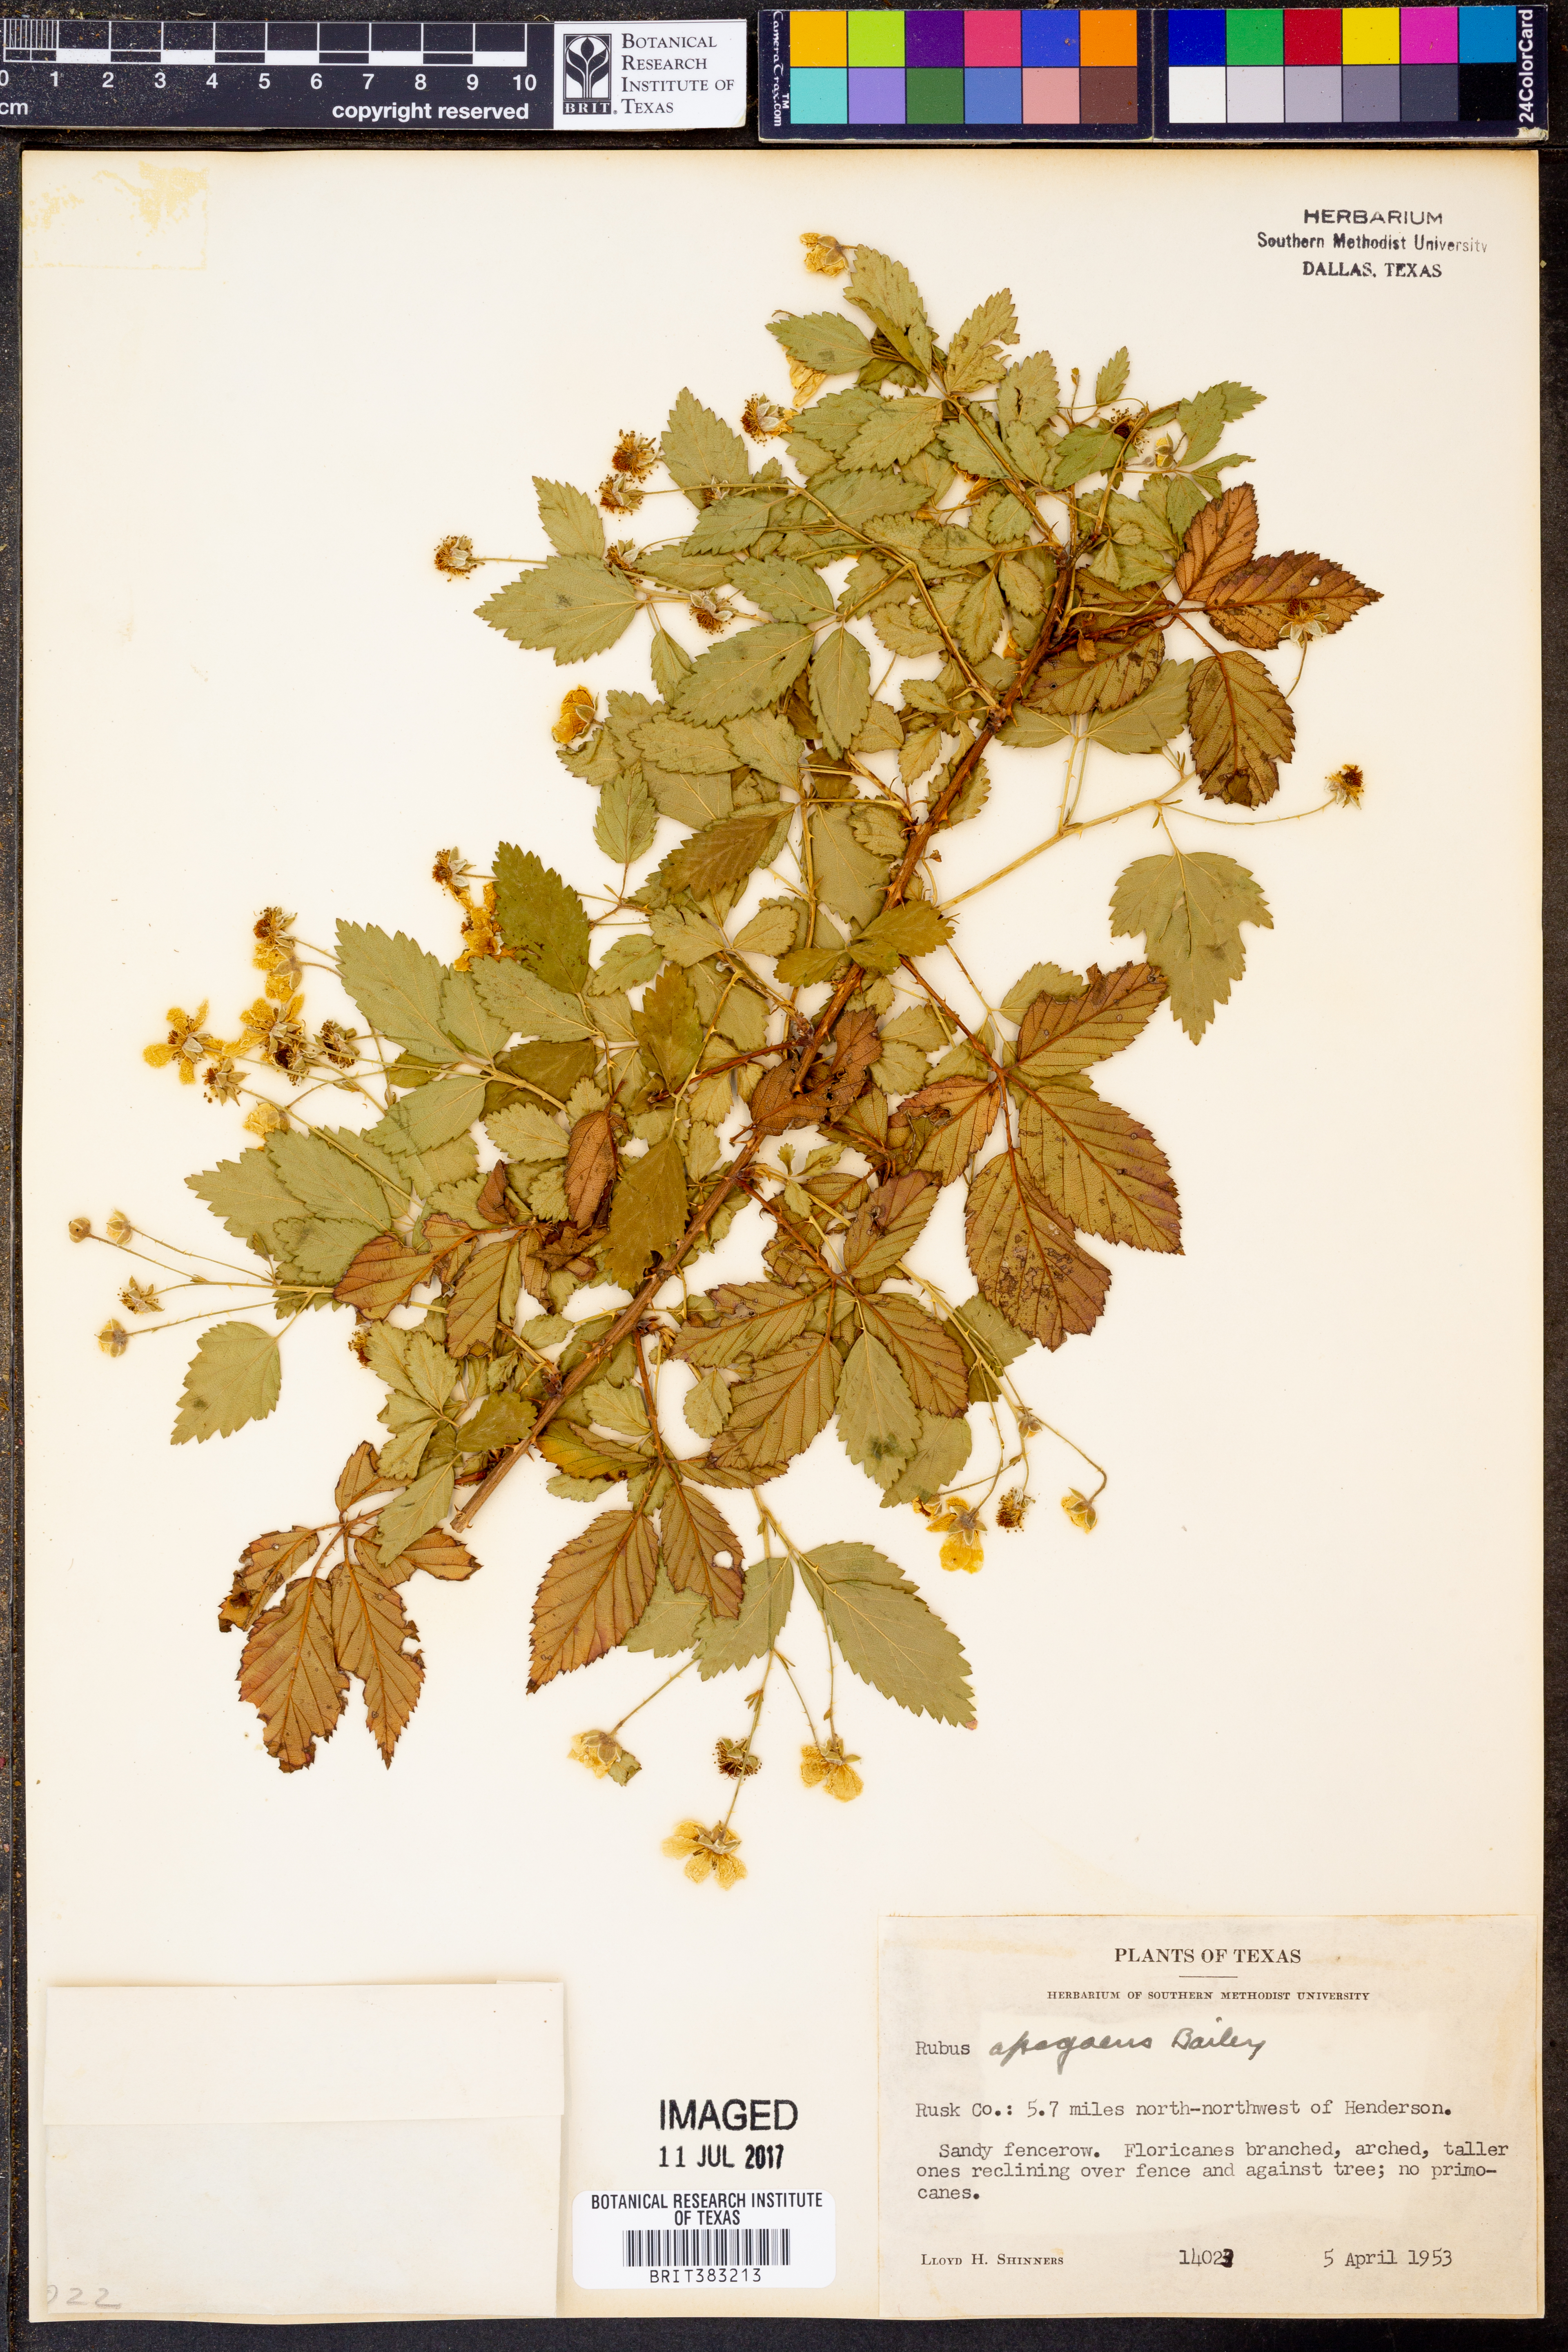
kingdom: Plantae
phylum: Tracheophyta
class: Magnoliopsida
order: Rosales
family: Rosaceae
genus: Rubus
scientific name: Rubus apogaeus
